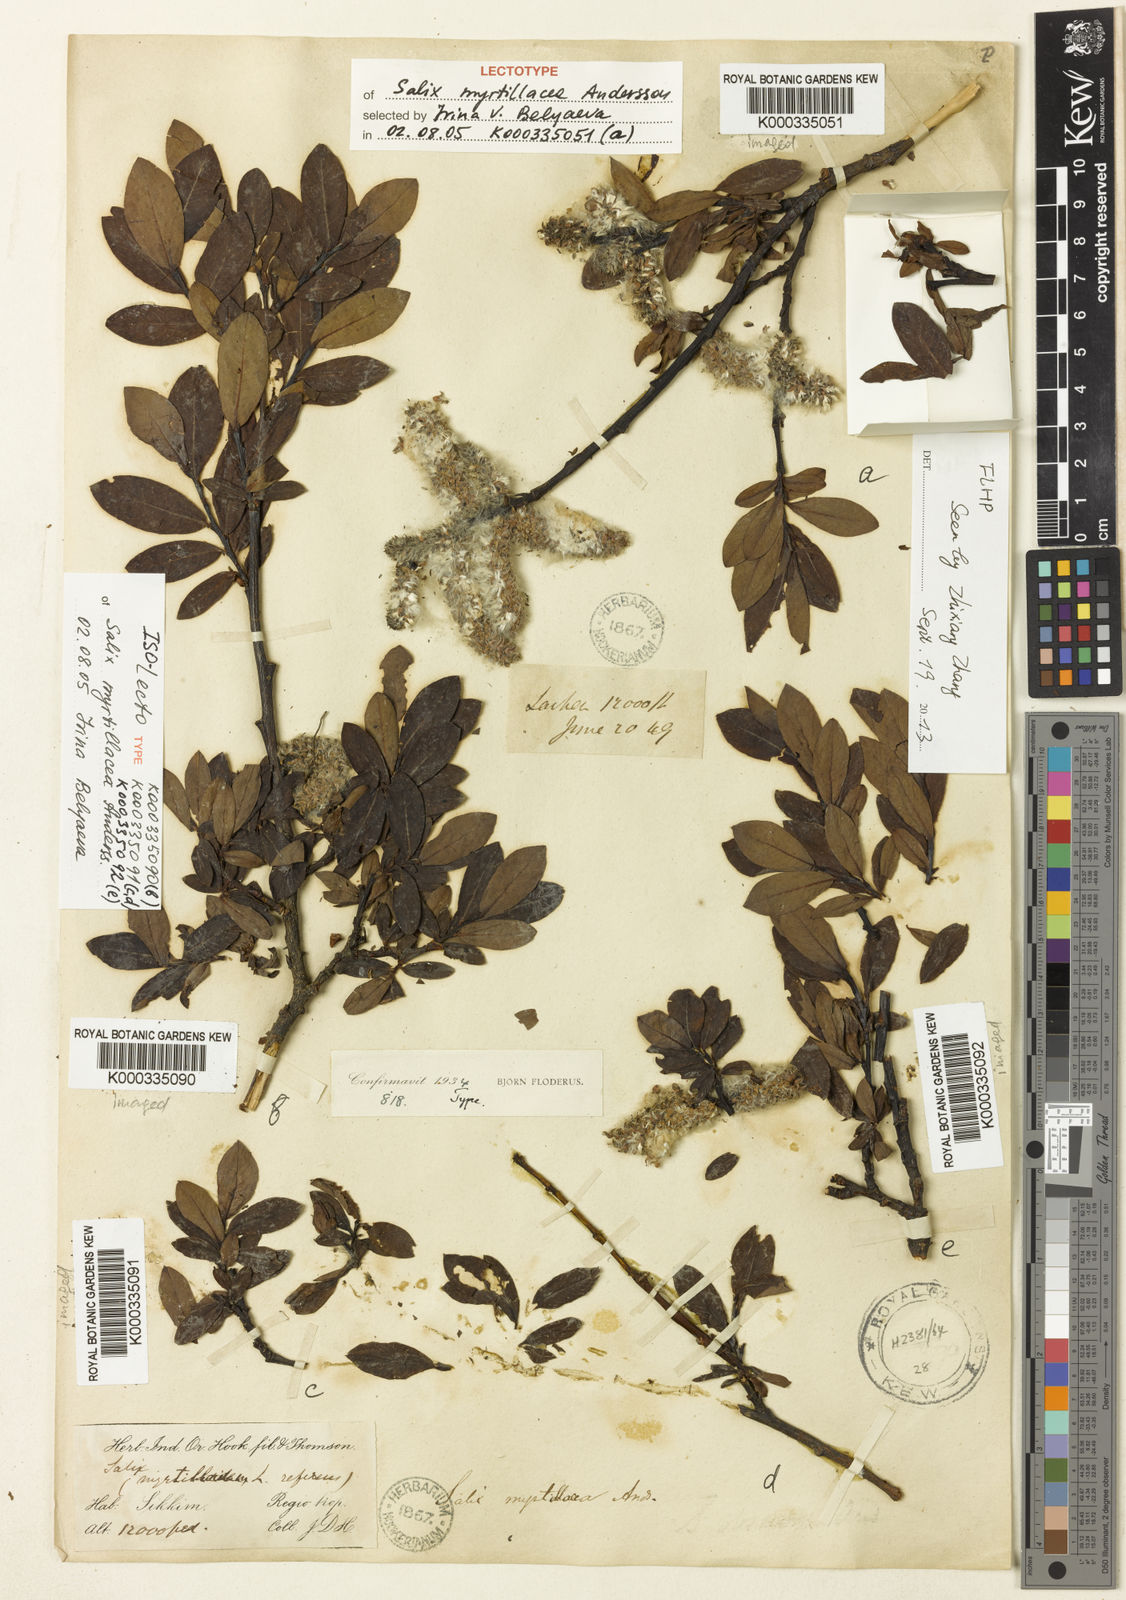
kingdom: Plantae
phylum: Tracheophyta
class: Magnoliopsida
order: Malpighiales
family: Salicaceae
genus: Salix
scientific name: Salix myrtillacea
